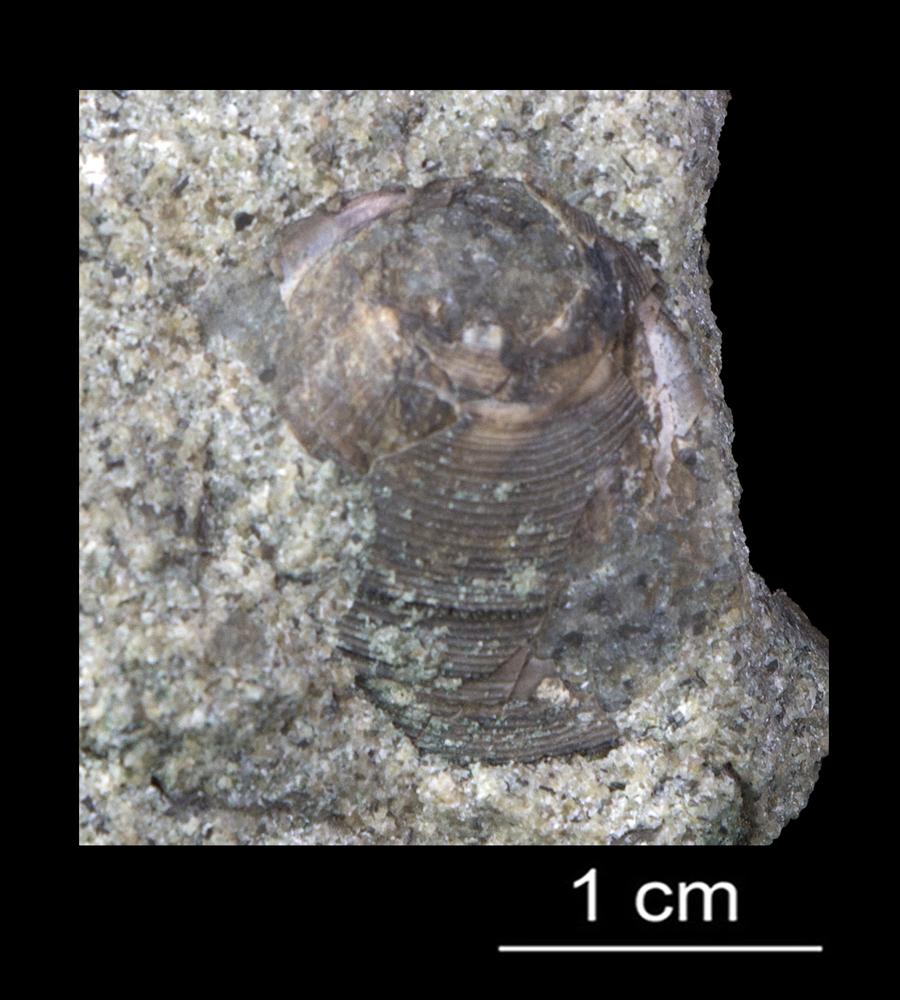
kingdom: Animalia
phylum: Brachiopoda
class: Lingulata
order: Lingulida
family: Zhanatellidae
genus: Thysanotos
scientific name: Thysanotos
